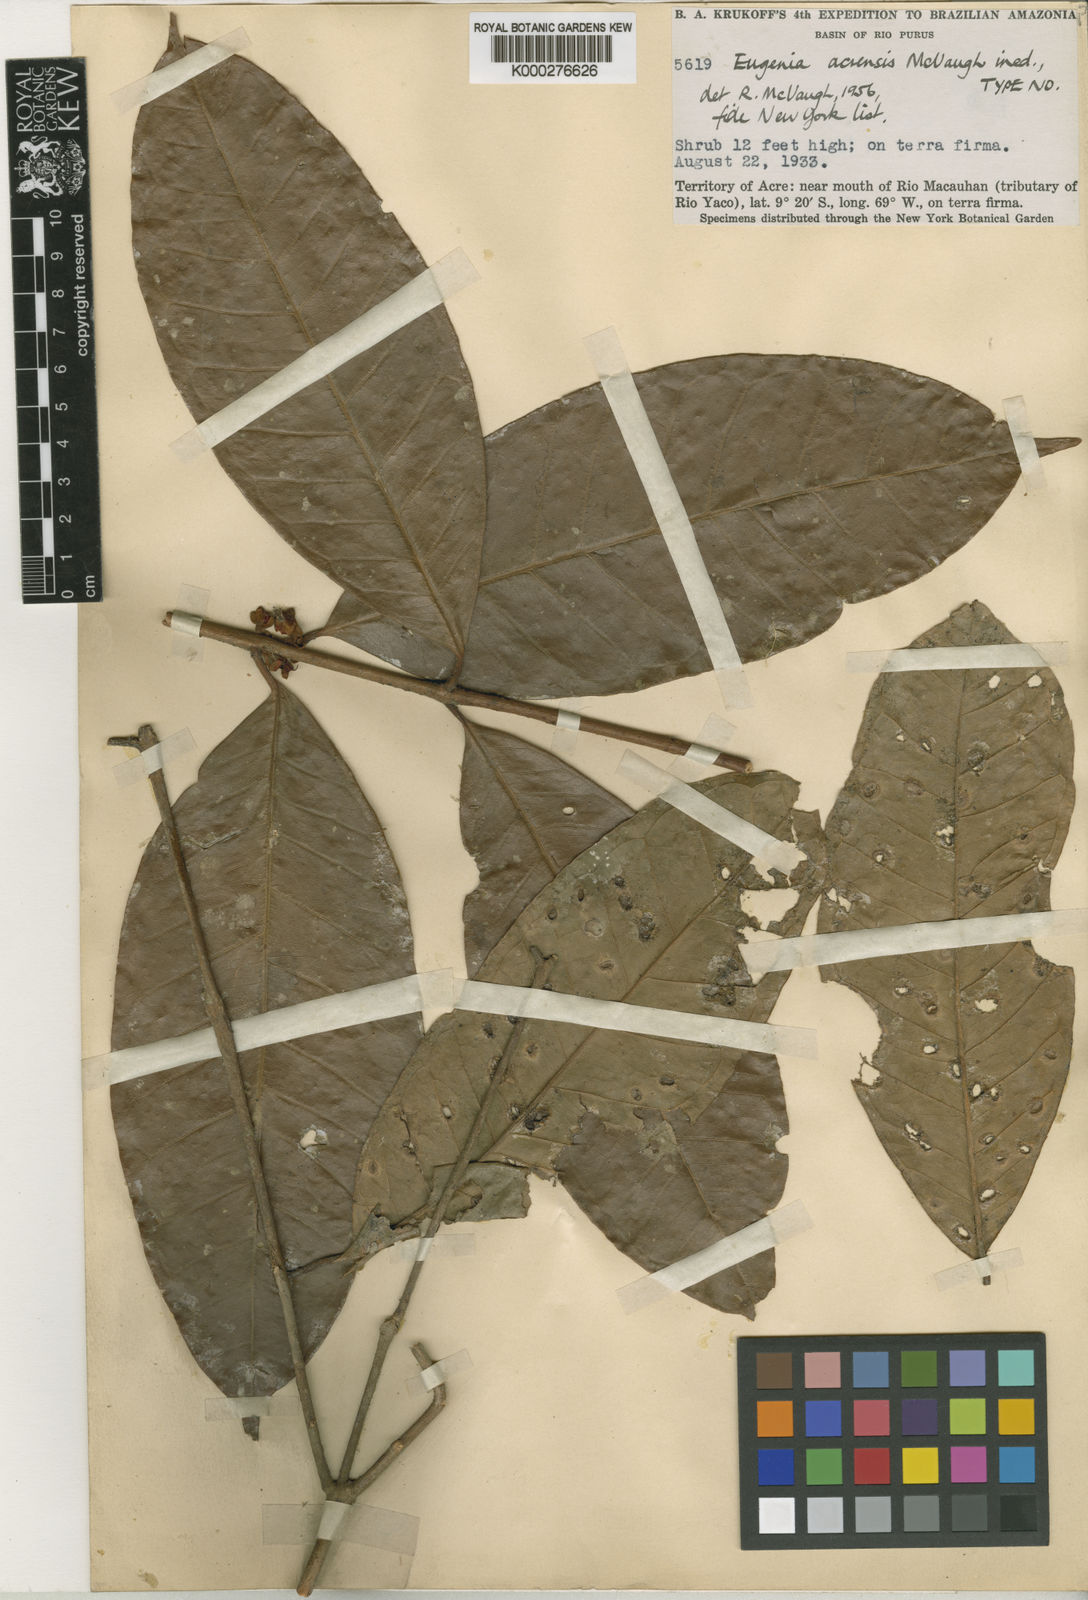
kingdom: Plantae
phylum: Tracheophyta
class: Magnoliopsida
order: Myrtales
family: Myrtaceae
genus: Eugenia
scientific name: Eugenia acrensis
